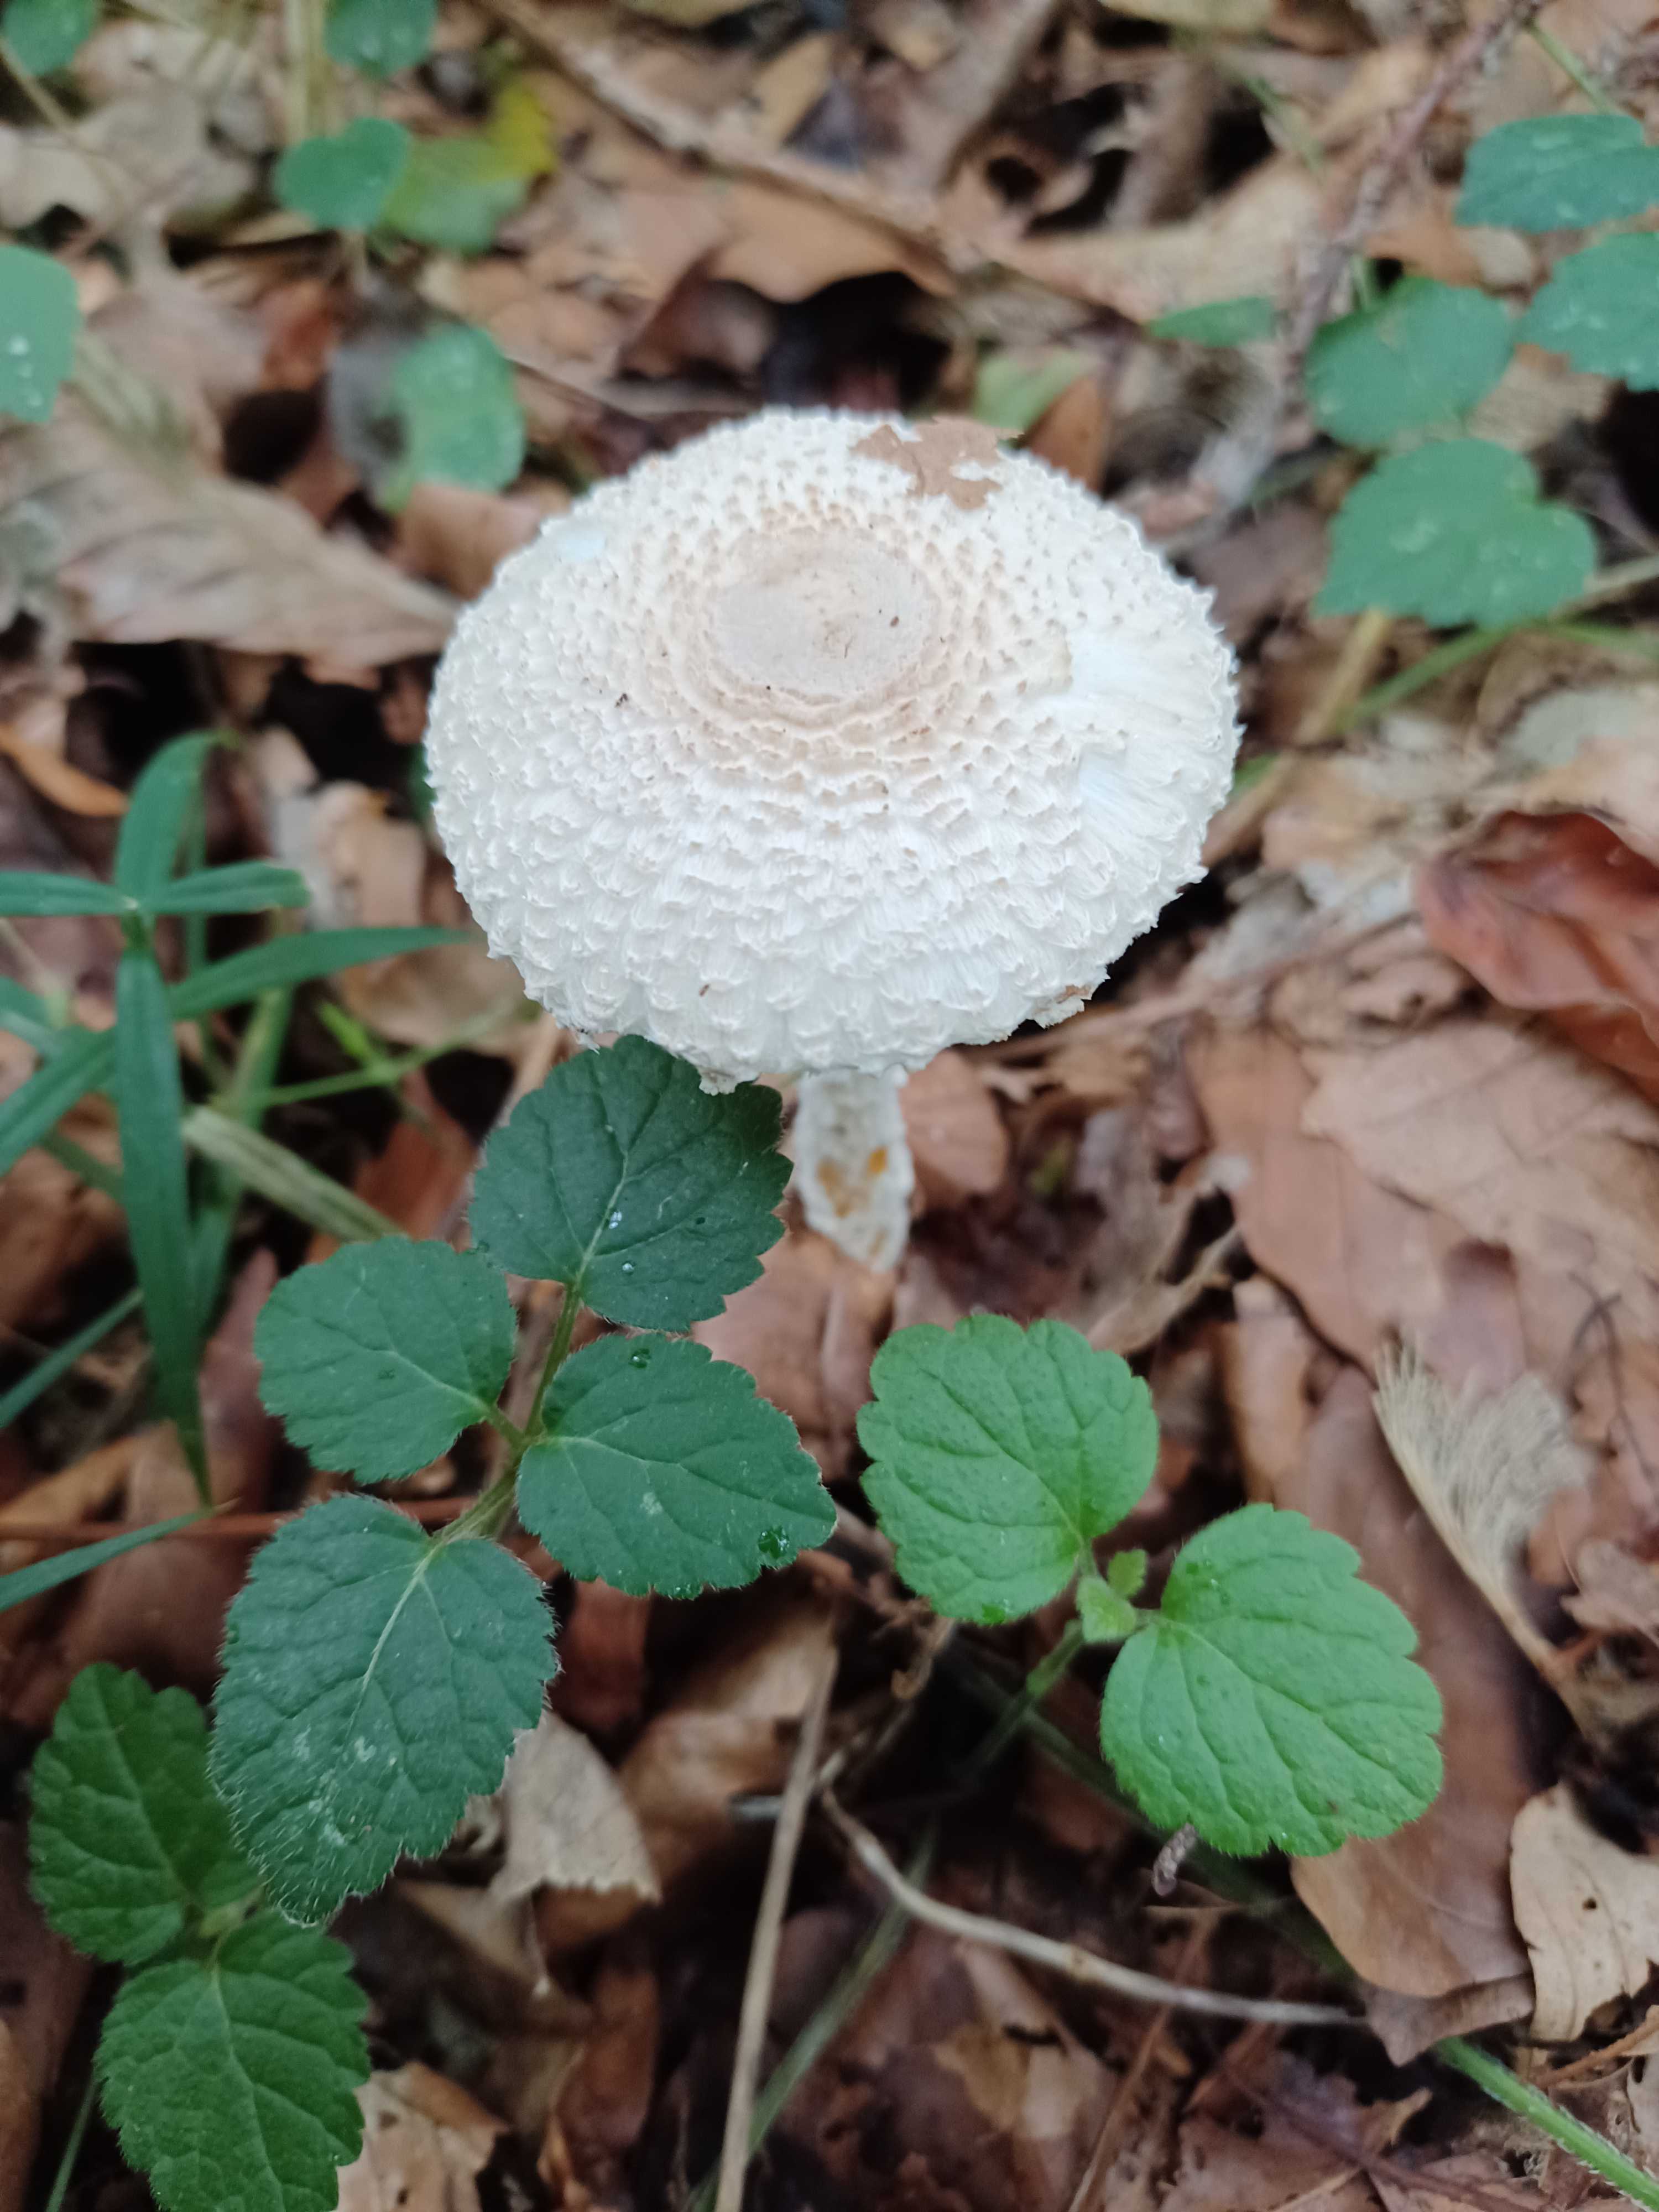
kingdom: Fungi
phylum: Basidiomycota
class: Agaricomycetes
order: Agaricales
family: Agaricaceae
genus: Lepiota
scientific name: Lepiota clypeolaria
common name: flosset parasolhat
